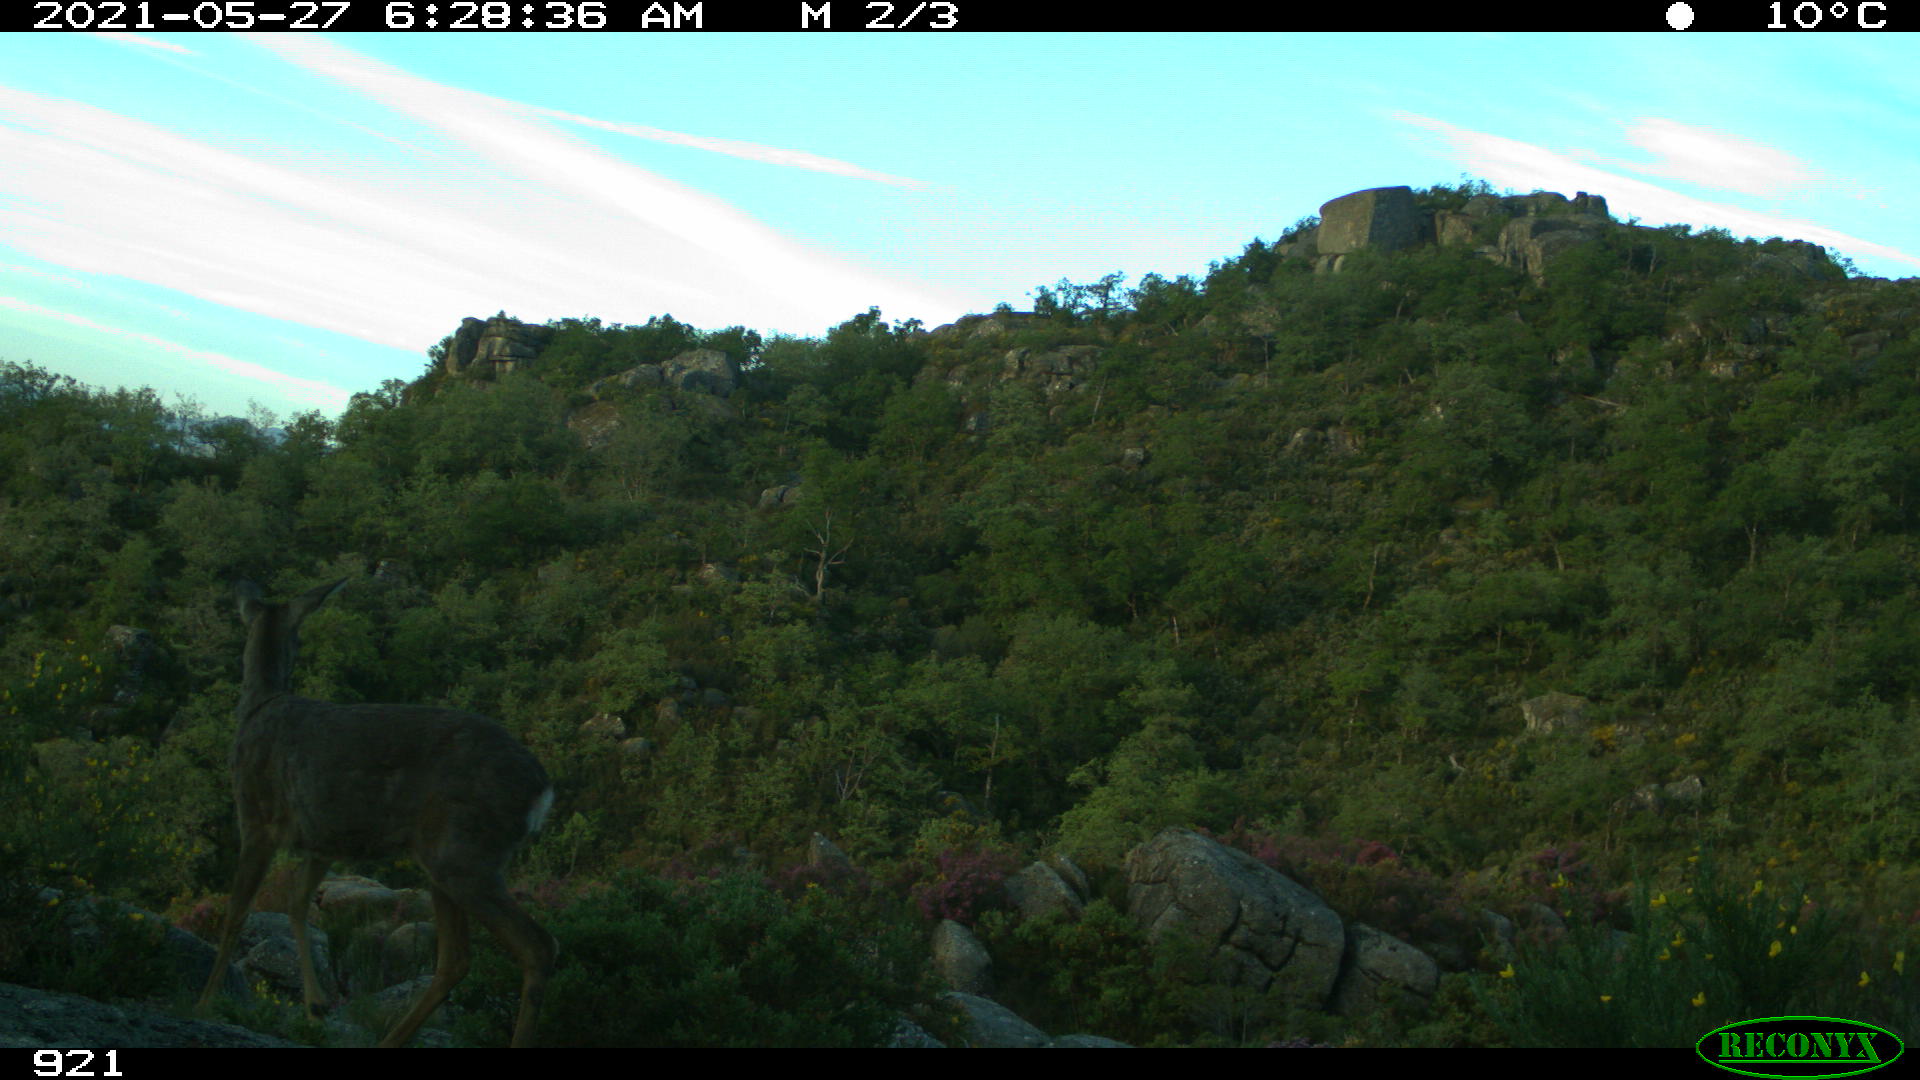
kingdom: Animalia
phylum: Chordata
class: Mammalia
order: Artiodactyla
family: Cervidae
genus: Capreolus
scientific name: Capreolus capreolus
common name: Western roe deer
